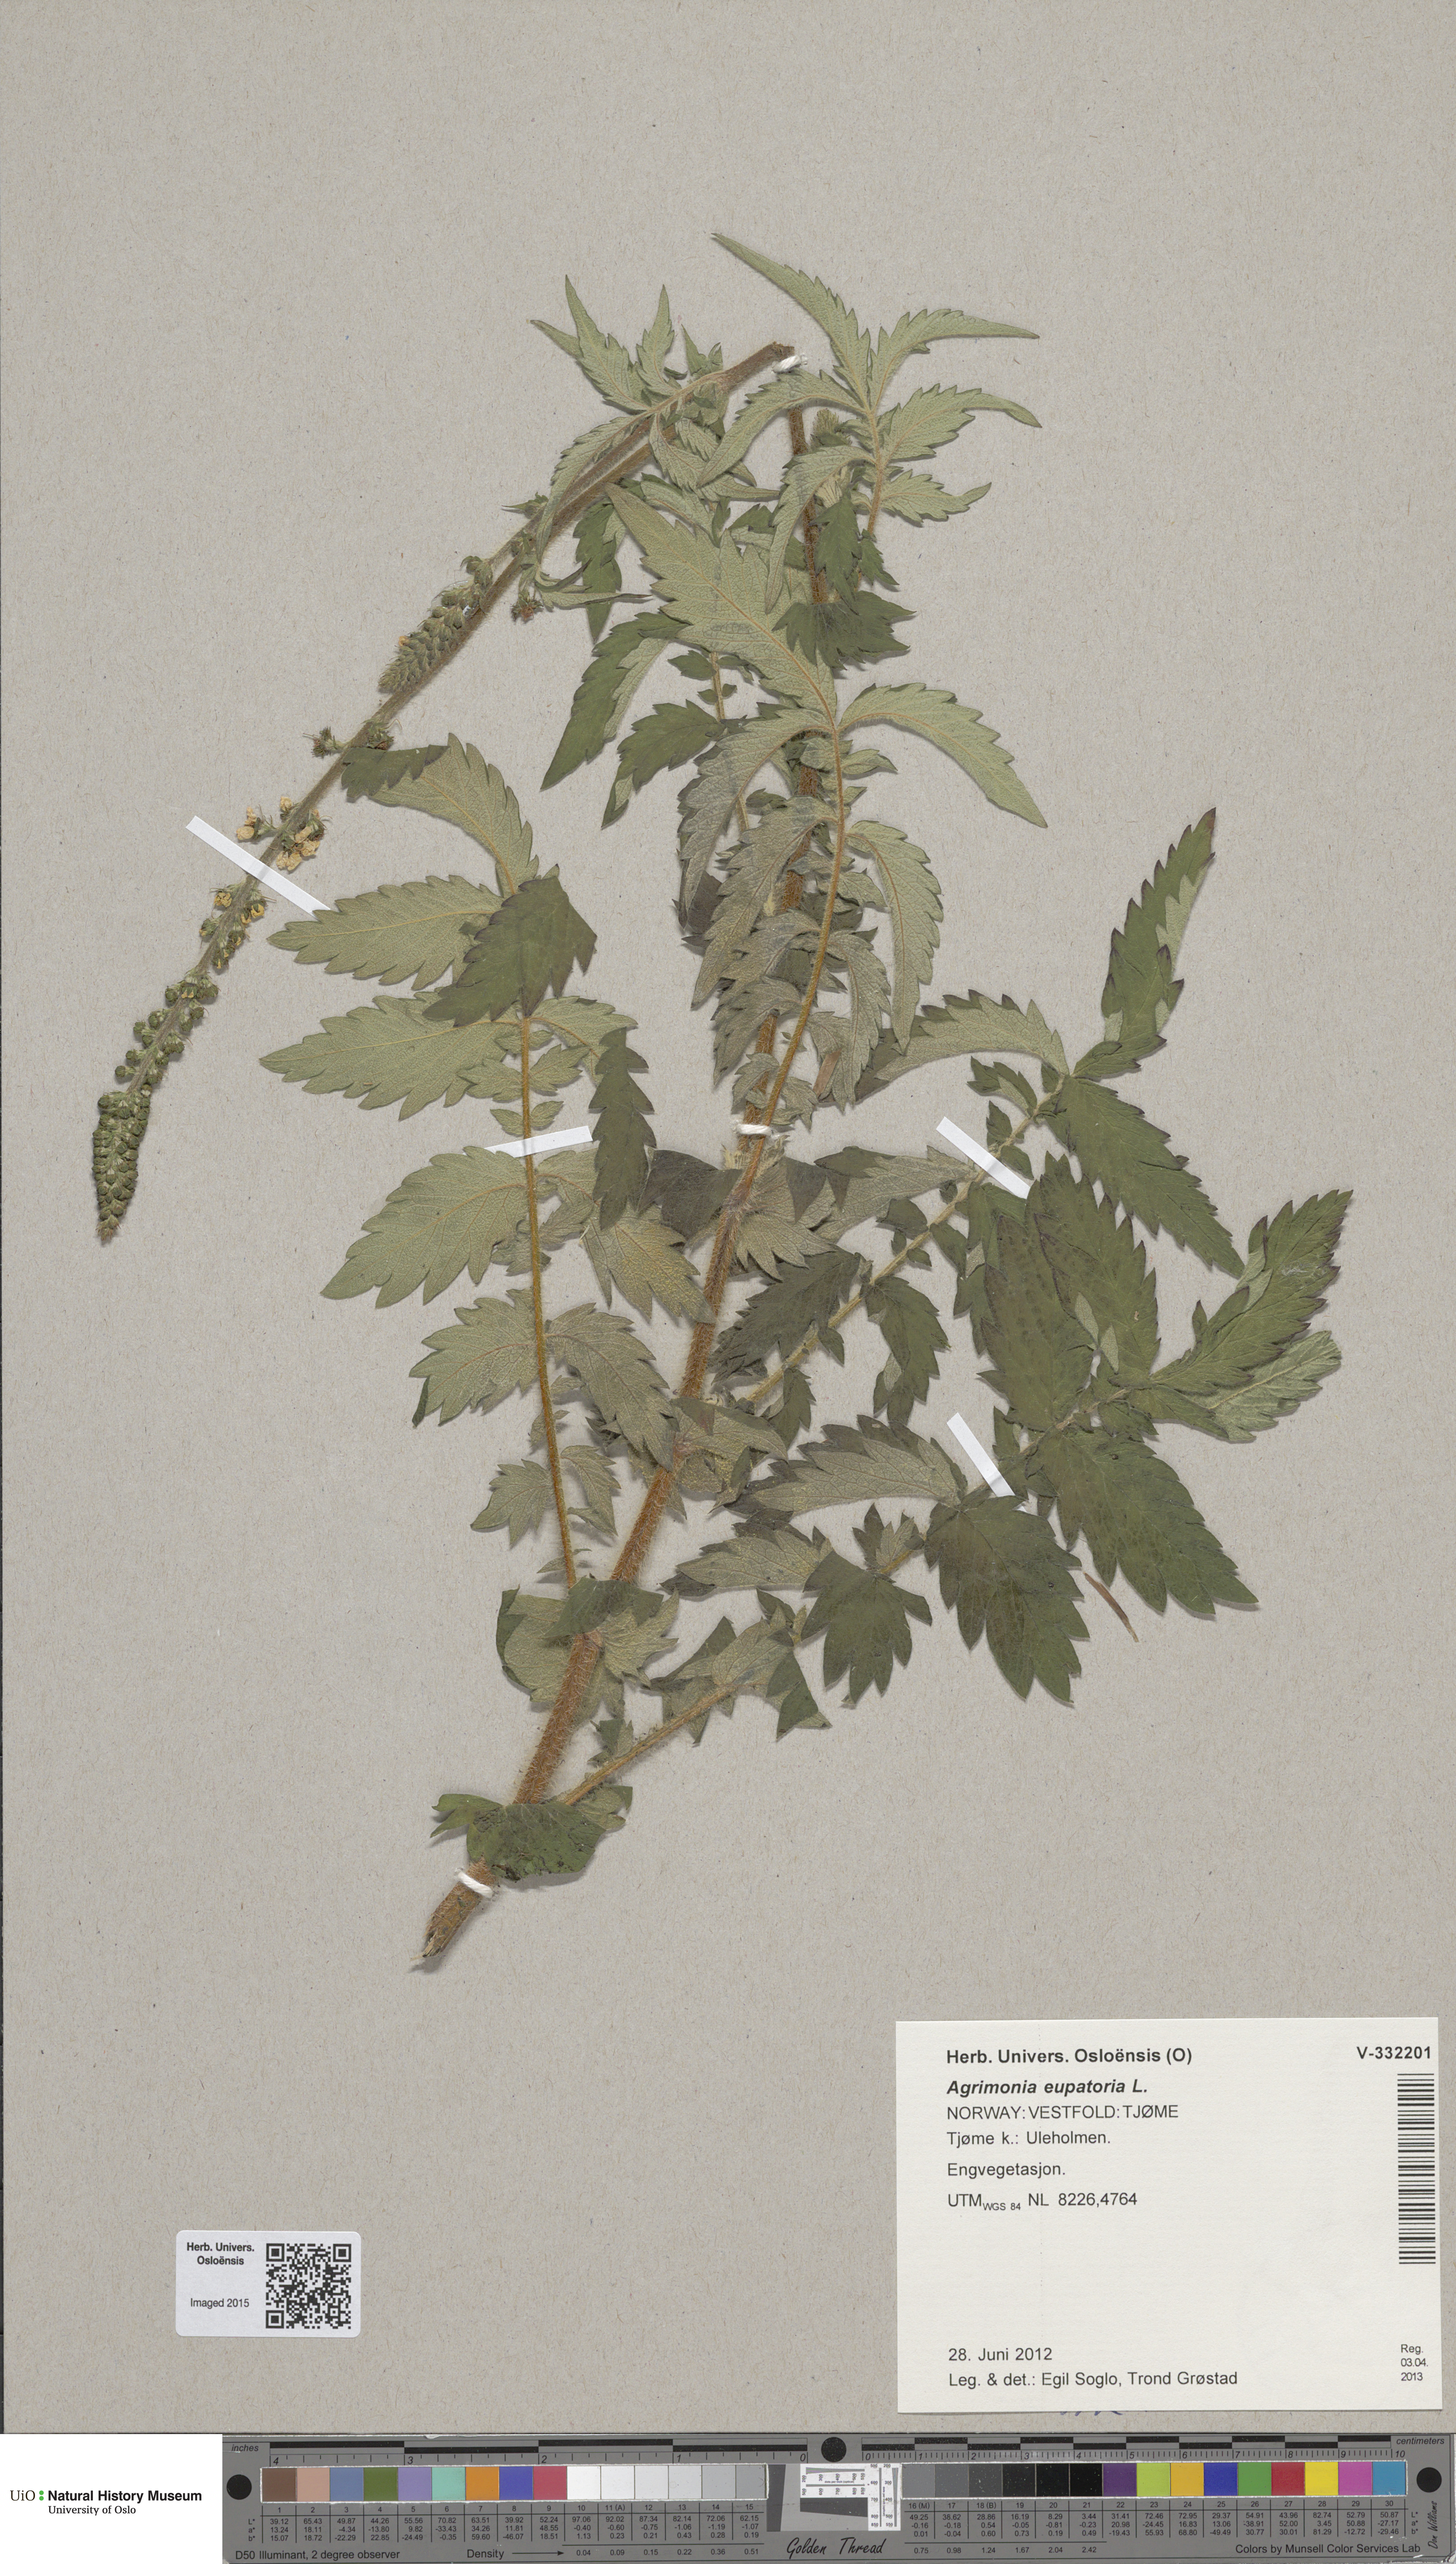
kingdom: Plantae
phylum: Tracheophyta
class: Magnoliopsida
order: Rosales
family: Rosaceae
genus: Agrimonia
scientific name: Agrimonia eupatoria
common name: Agrimony
